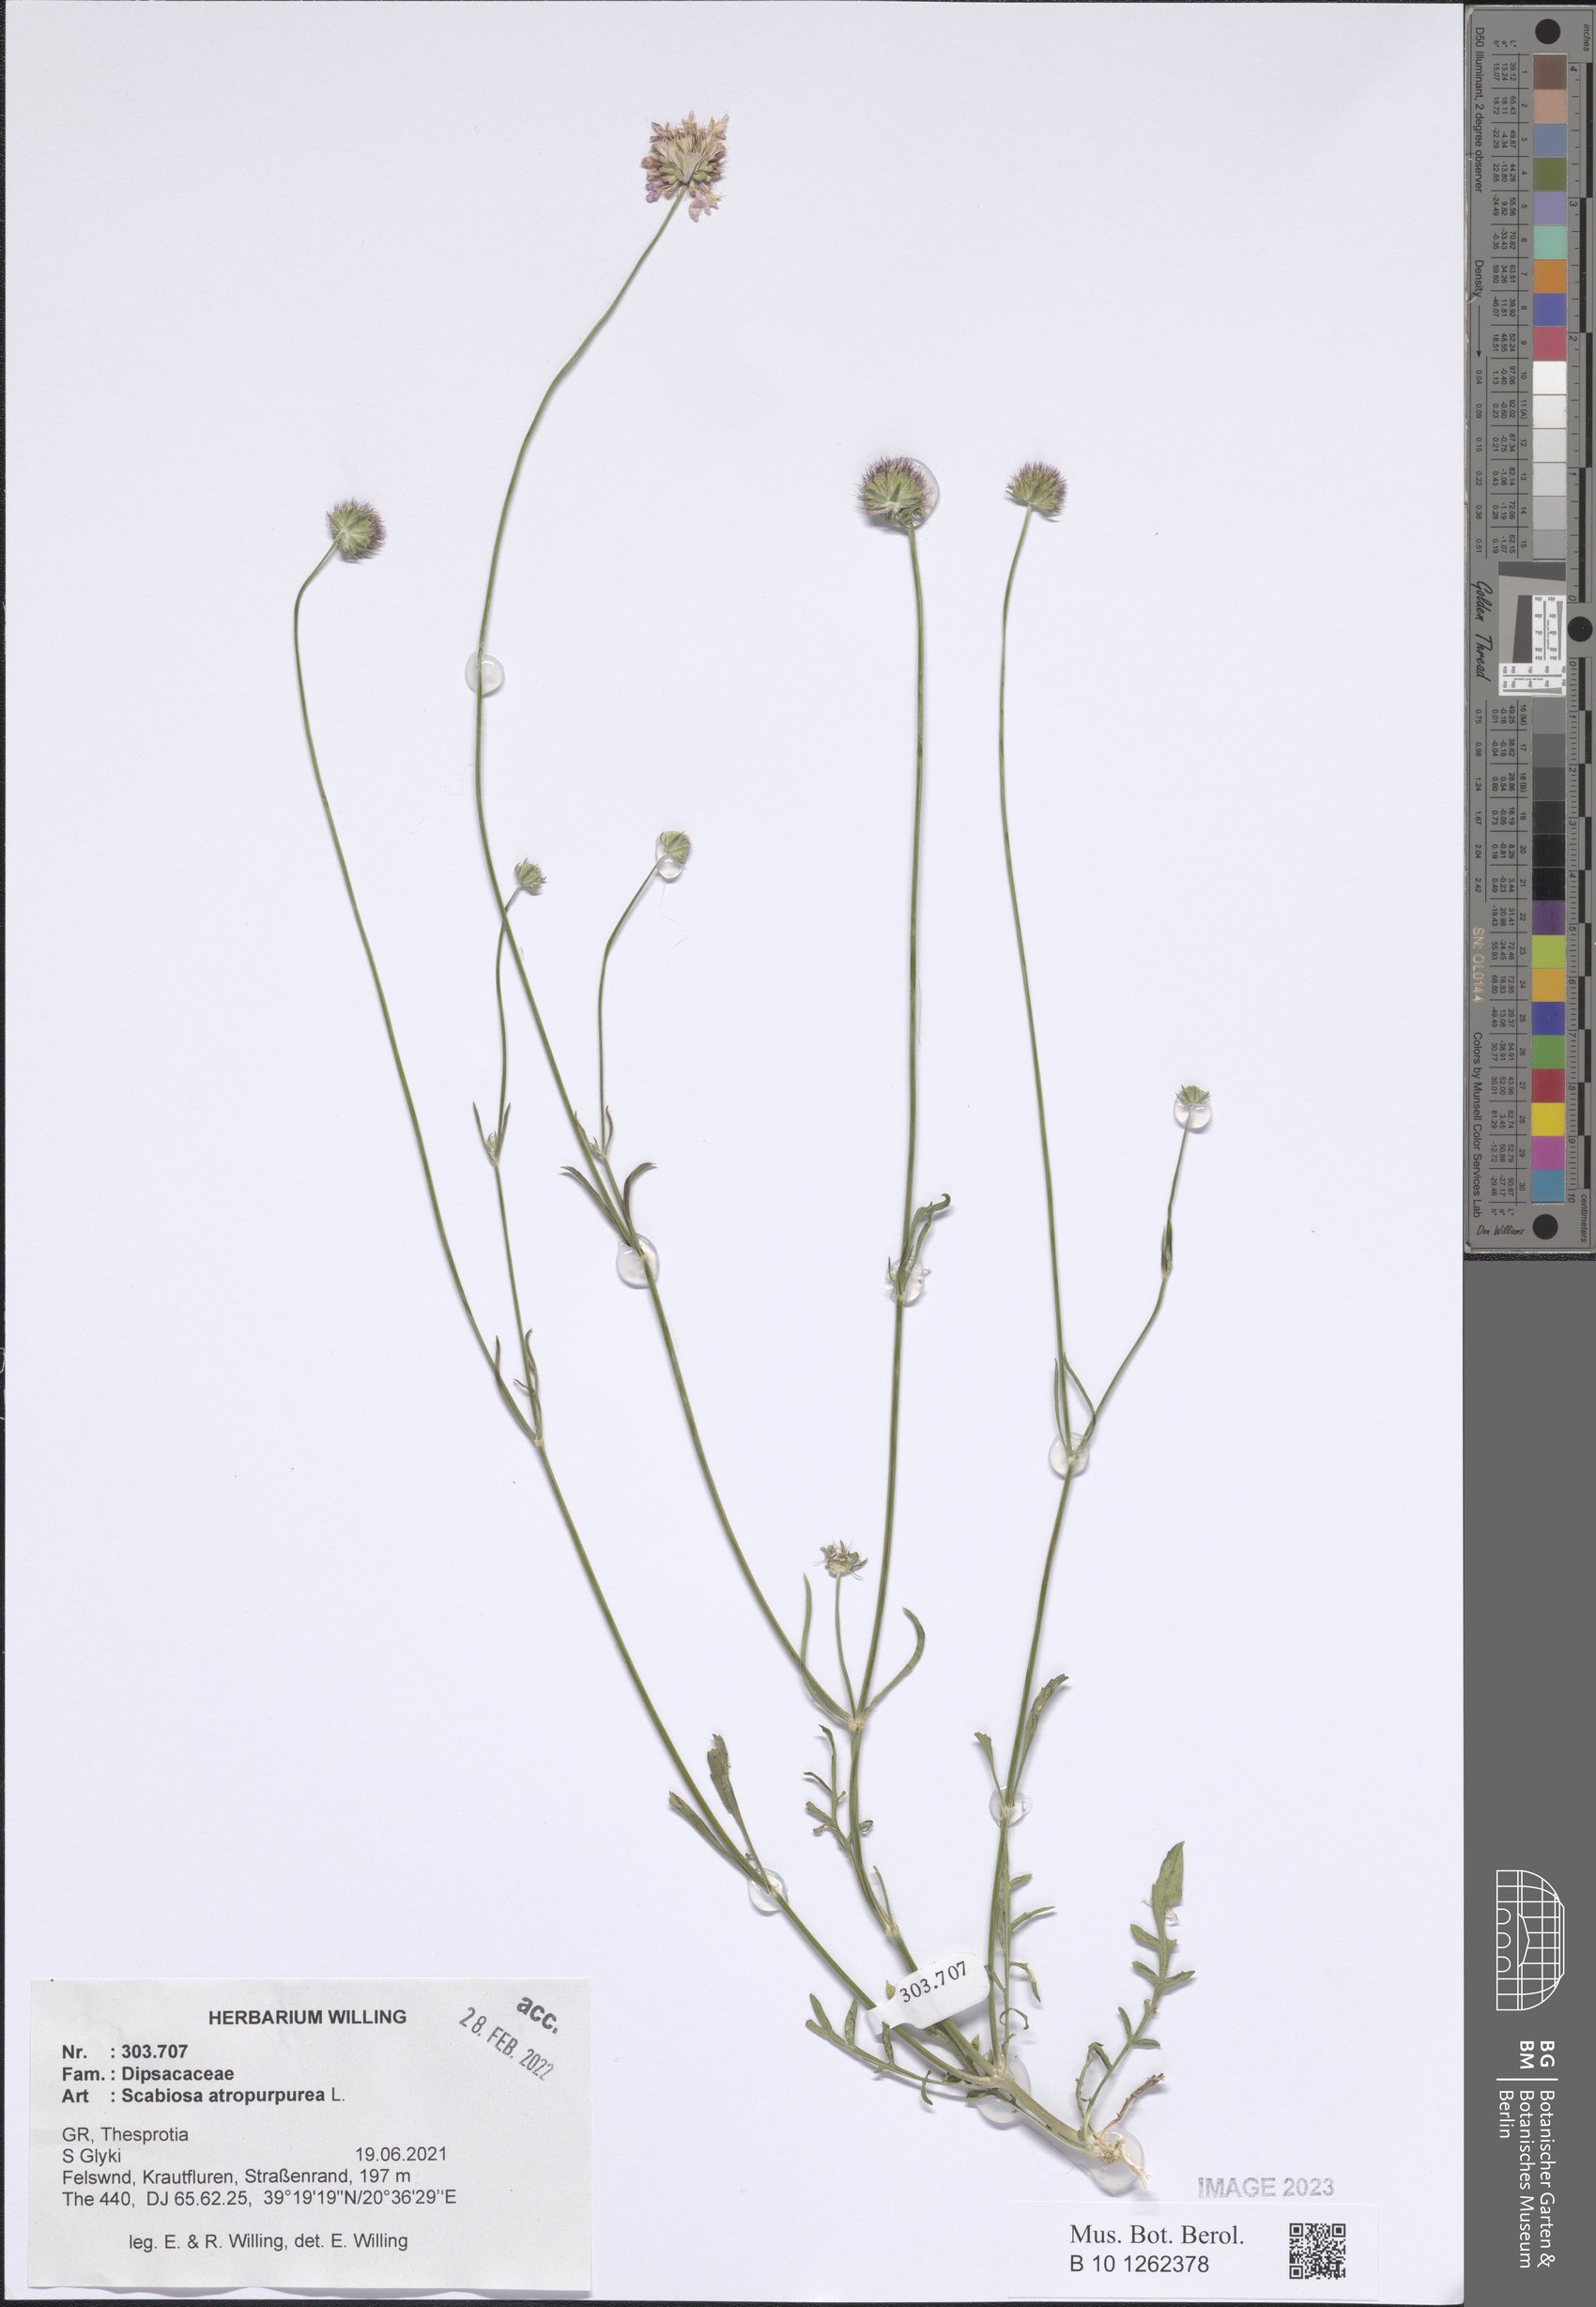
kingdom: Plantae
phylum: Tracheophyta
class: Magnoliopsida
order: Dipsacales
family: Caprifoliaceae
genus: Sixalix
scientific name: Sixalix atropurpurea
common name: Sweet scabious
